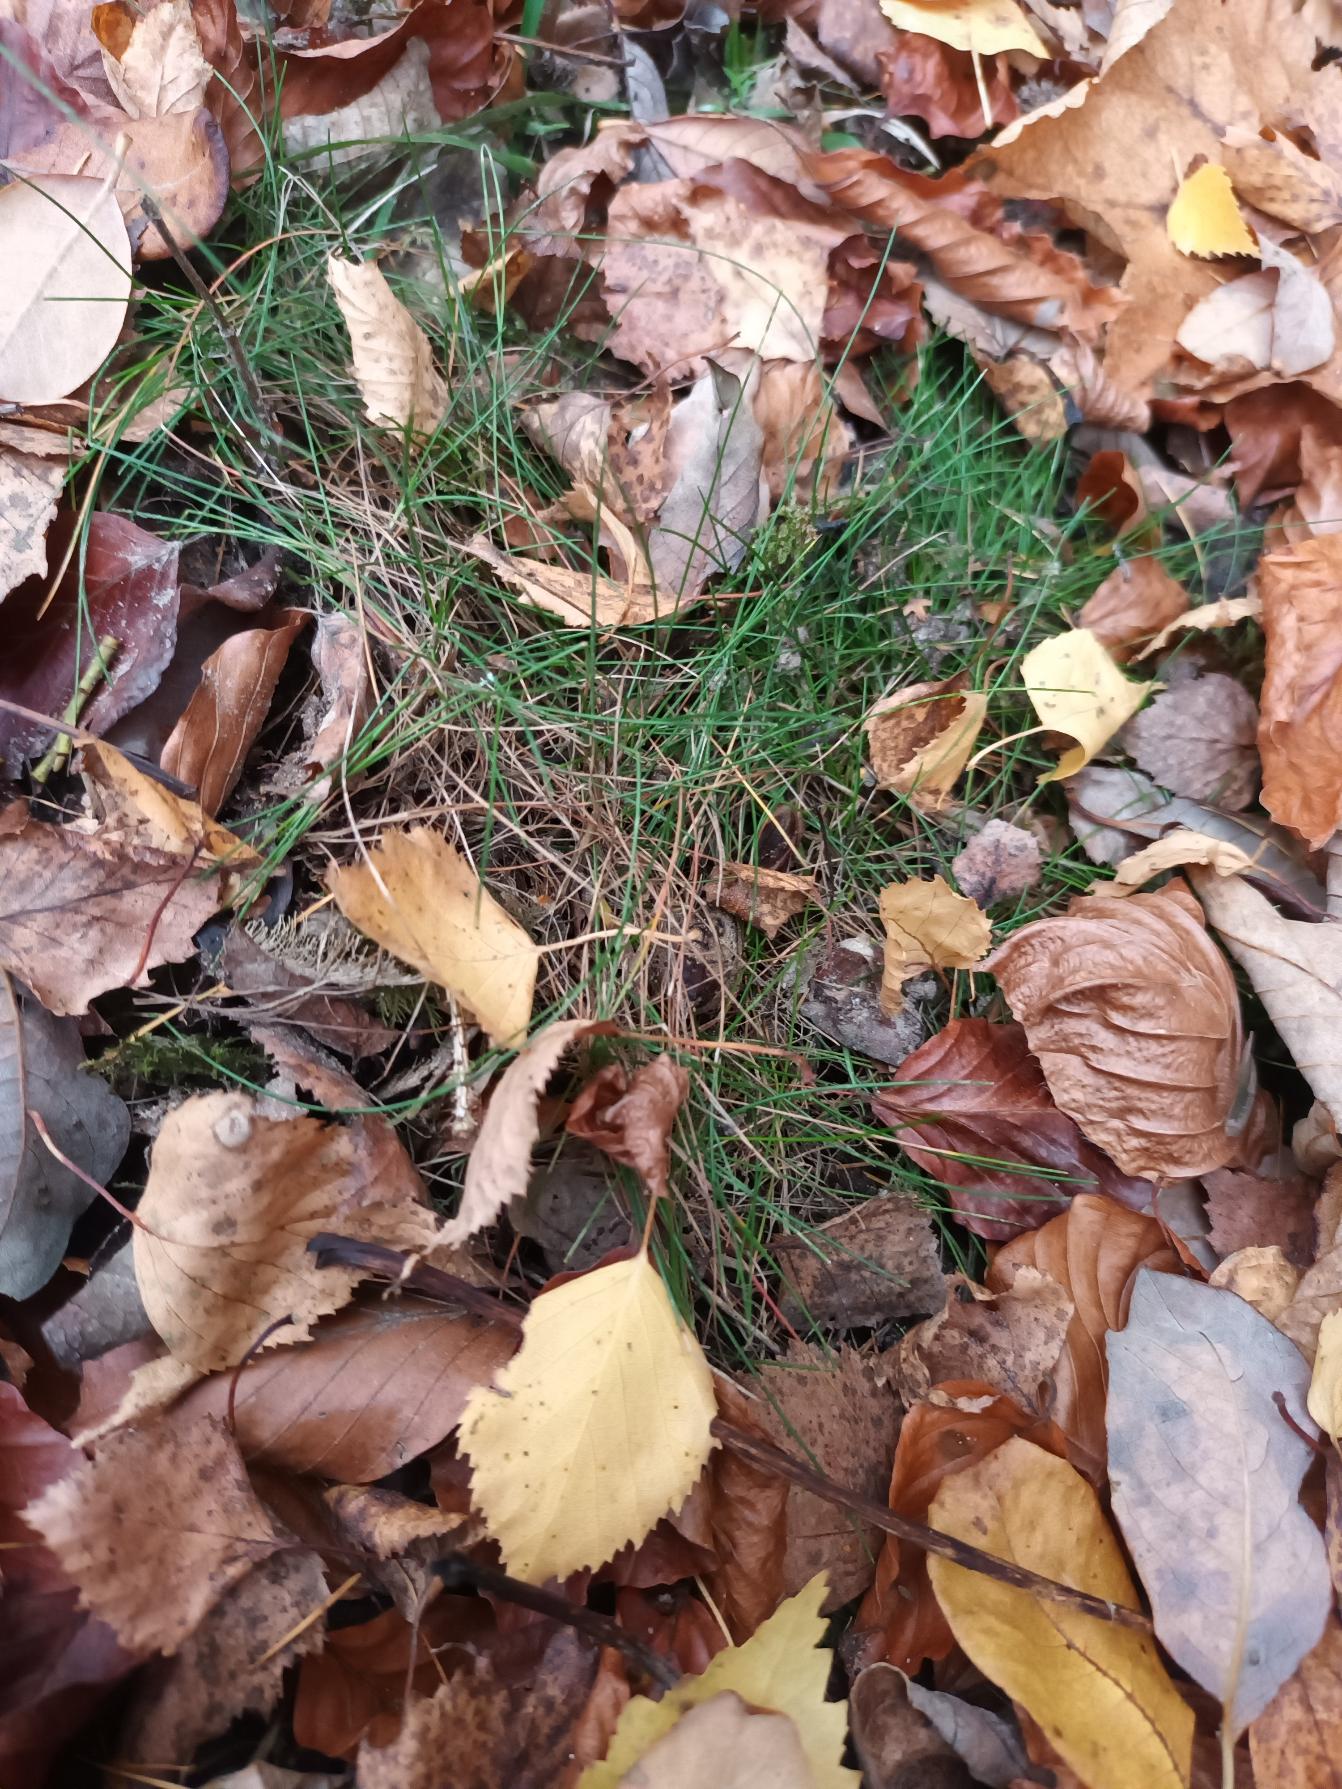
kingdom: Plantae
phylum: Tracheophyta
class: Liliopsida
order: Poales
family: Poaceae
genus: Avenella
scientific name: Avenella flexuosa
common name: Bølget bunke
